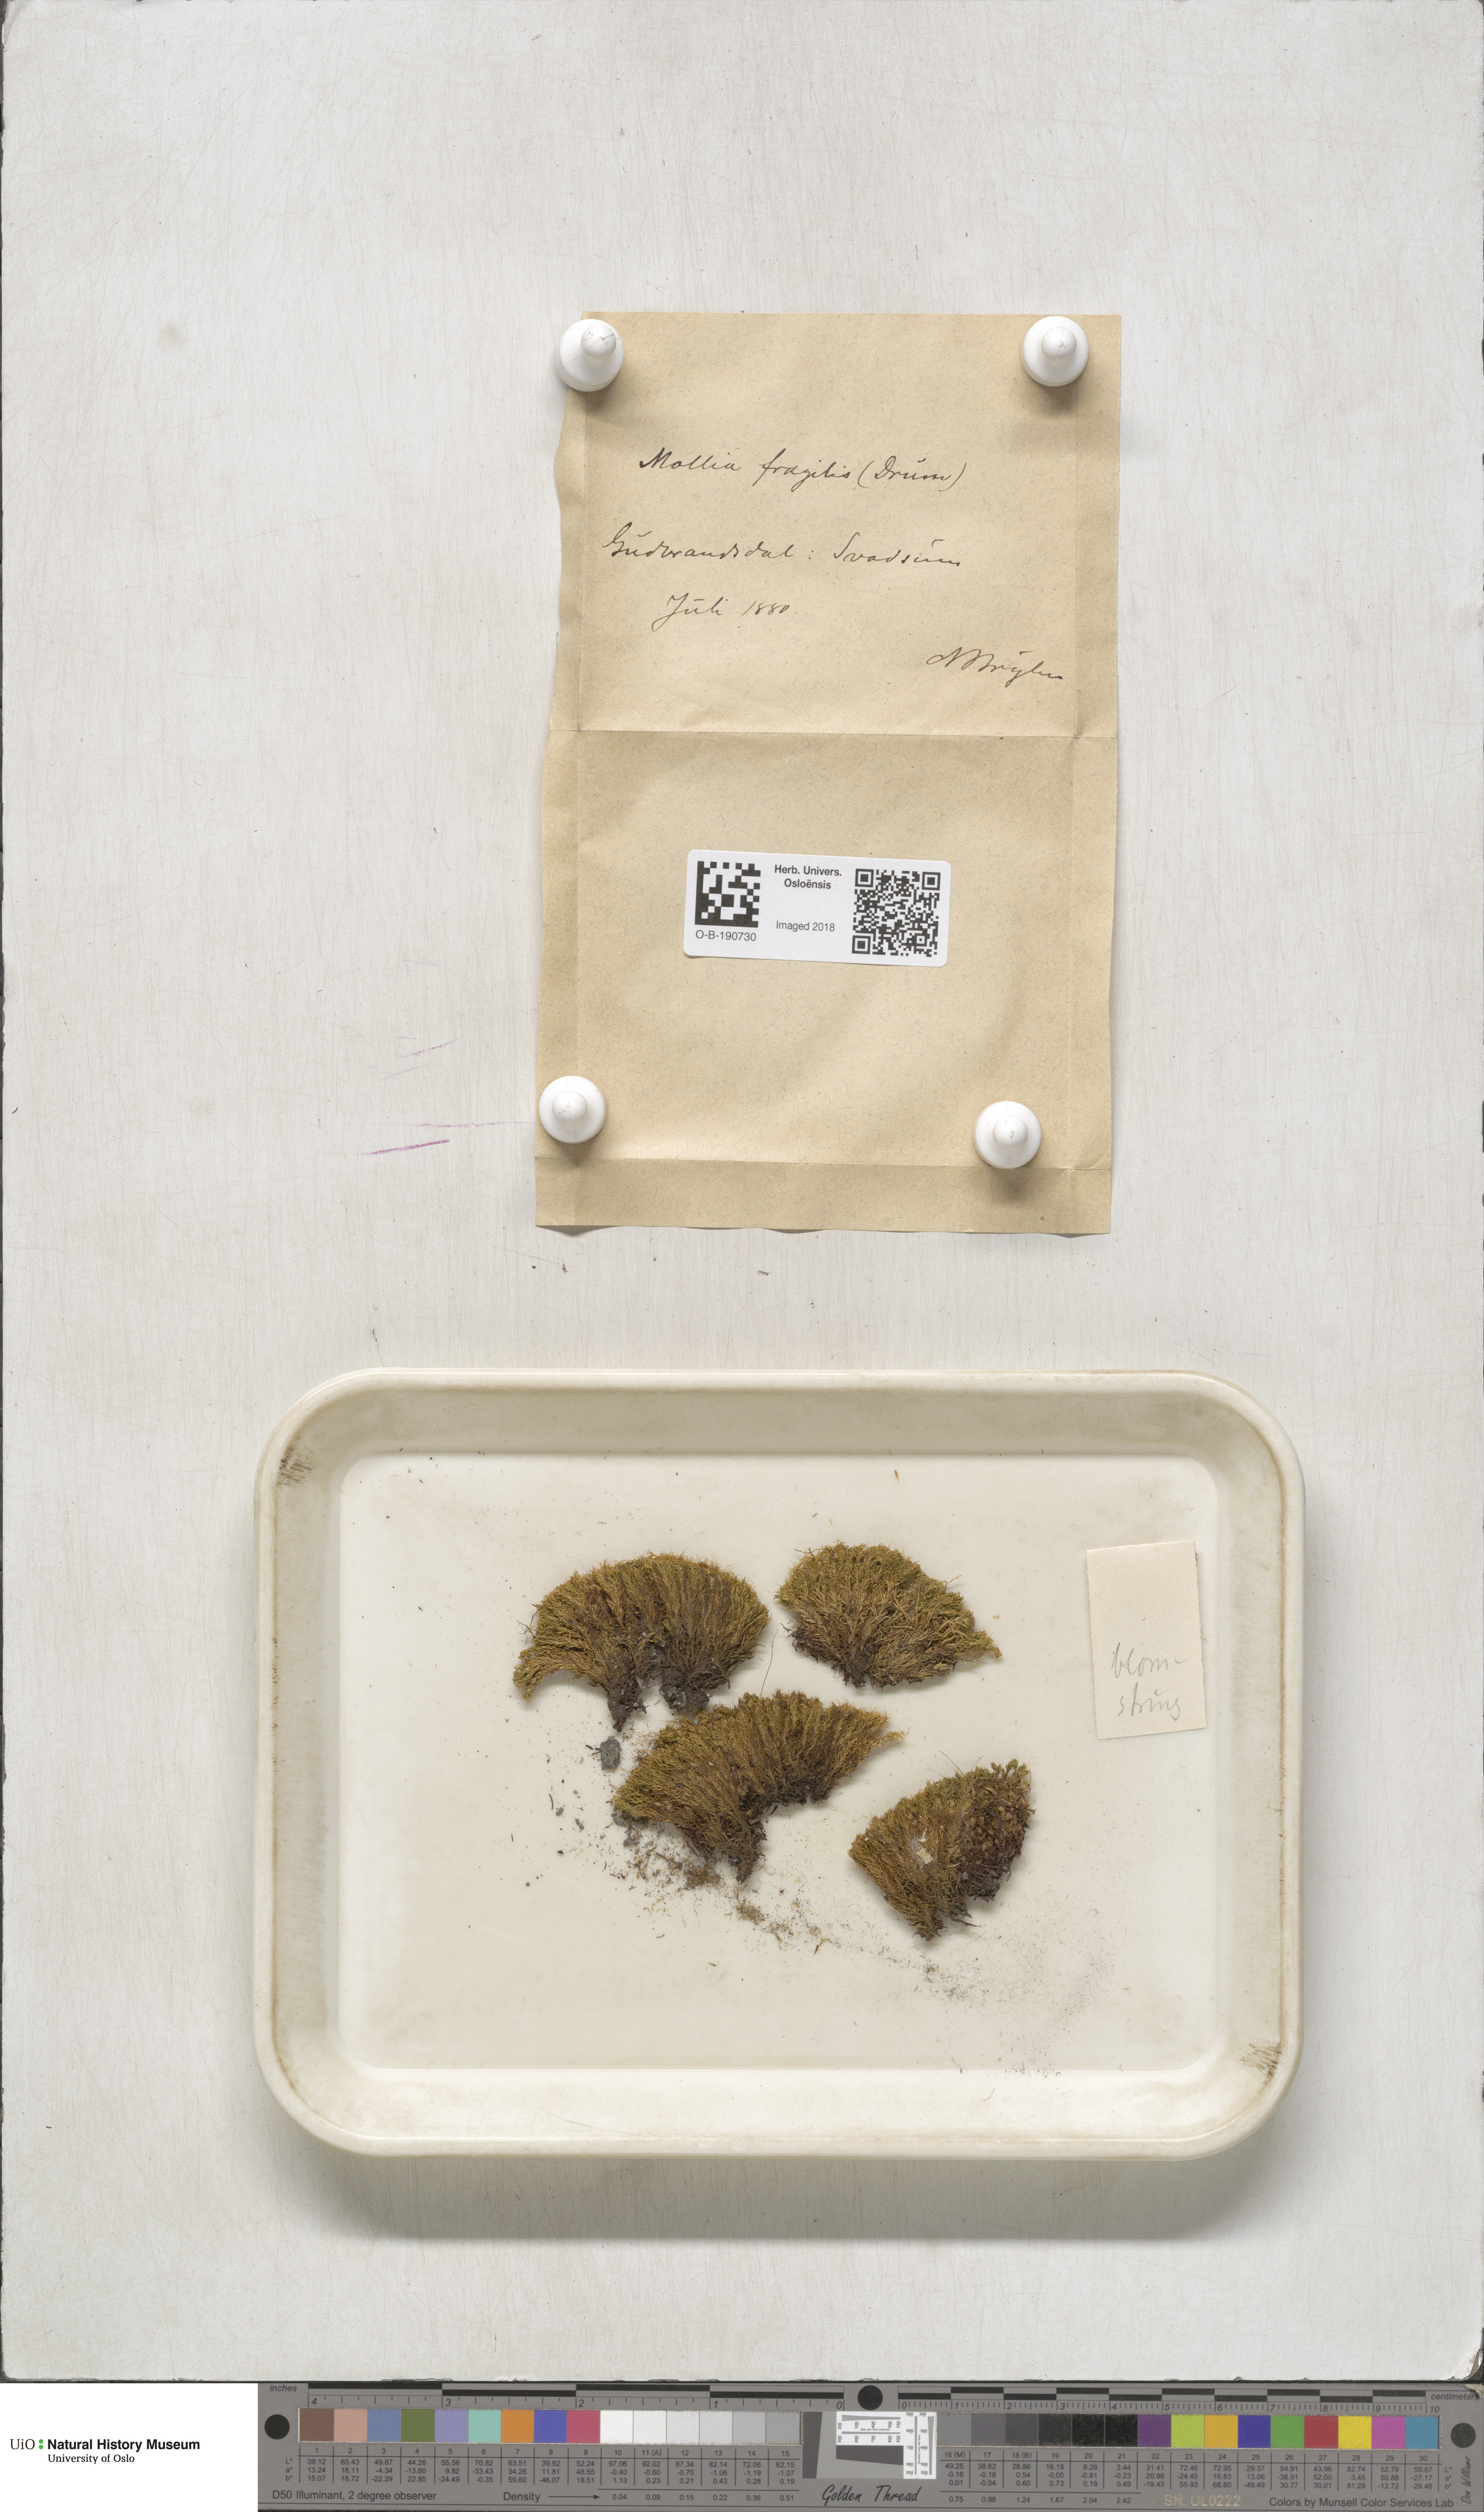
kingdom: Plantae
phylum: Bryophyta
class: Bryopsida
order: Pottiales
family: Pottiaceae
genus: Tortella
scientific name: Tortella fragilis
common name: Fragile twisted moss
